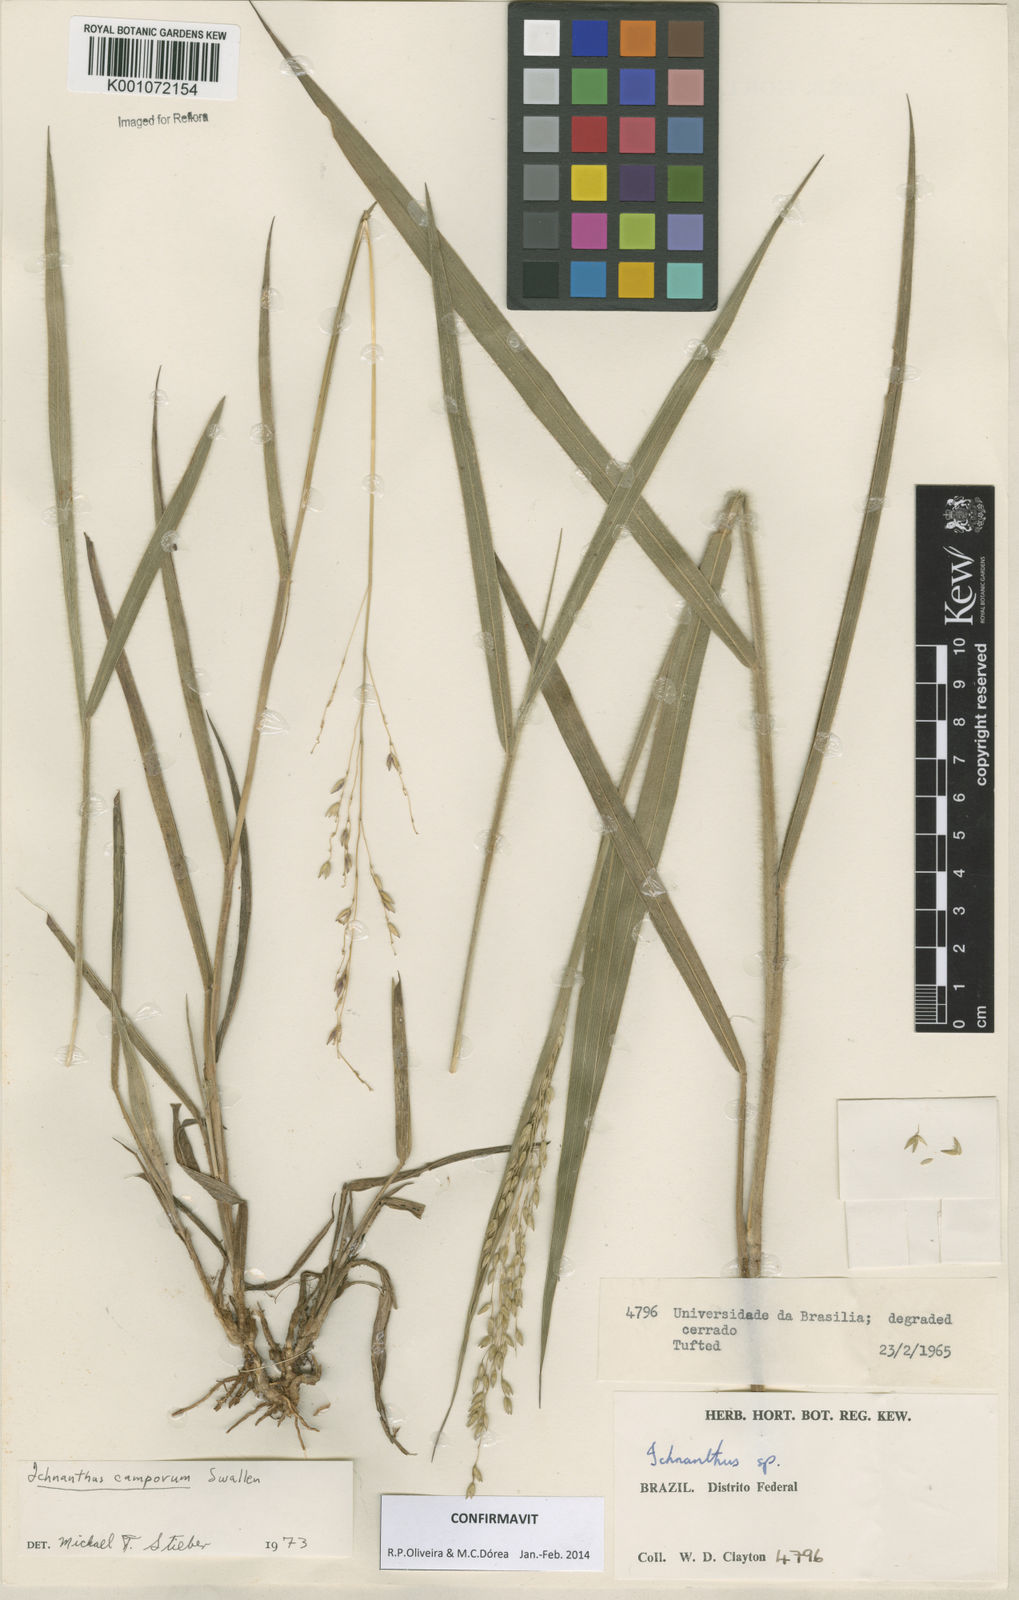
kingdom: Plantae
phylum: Tracheophyta
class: Liliopsida
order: Poales
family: Poaceae
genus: Oedochloa
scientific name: Oedochloa camporum
